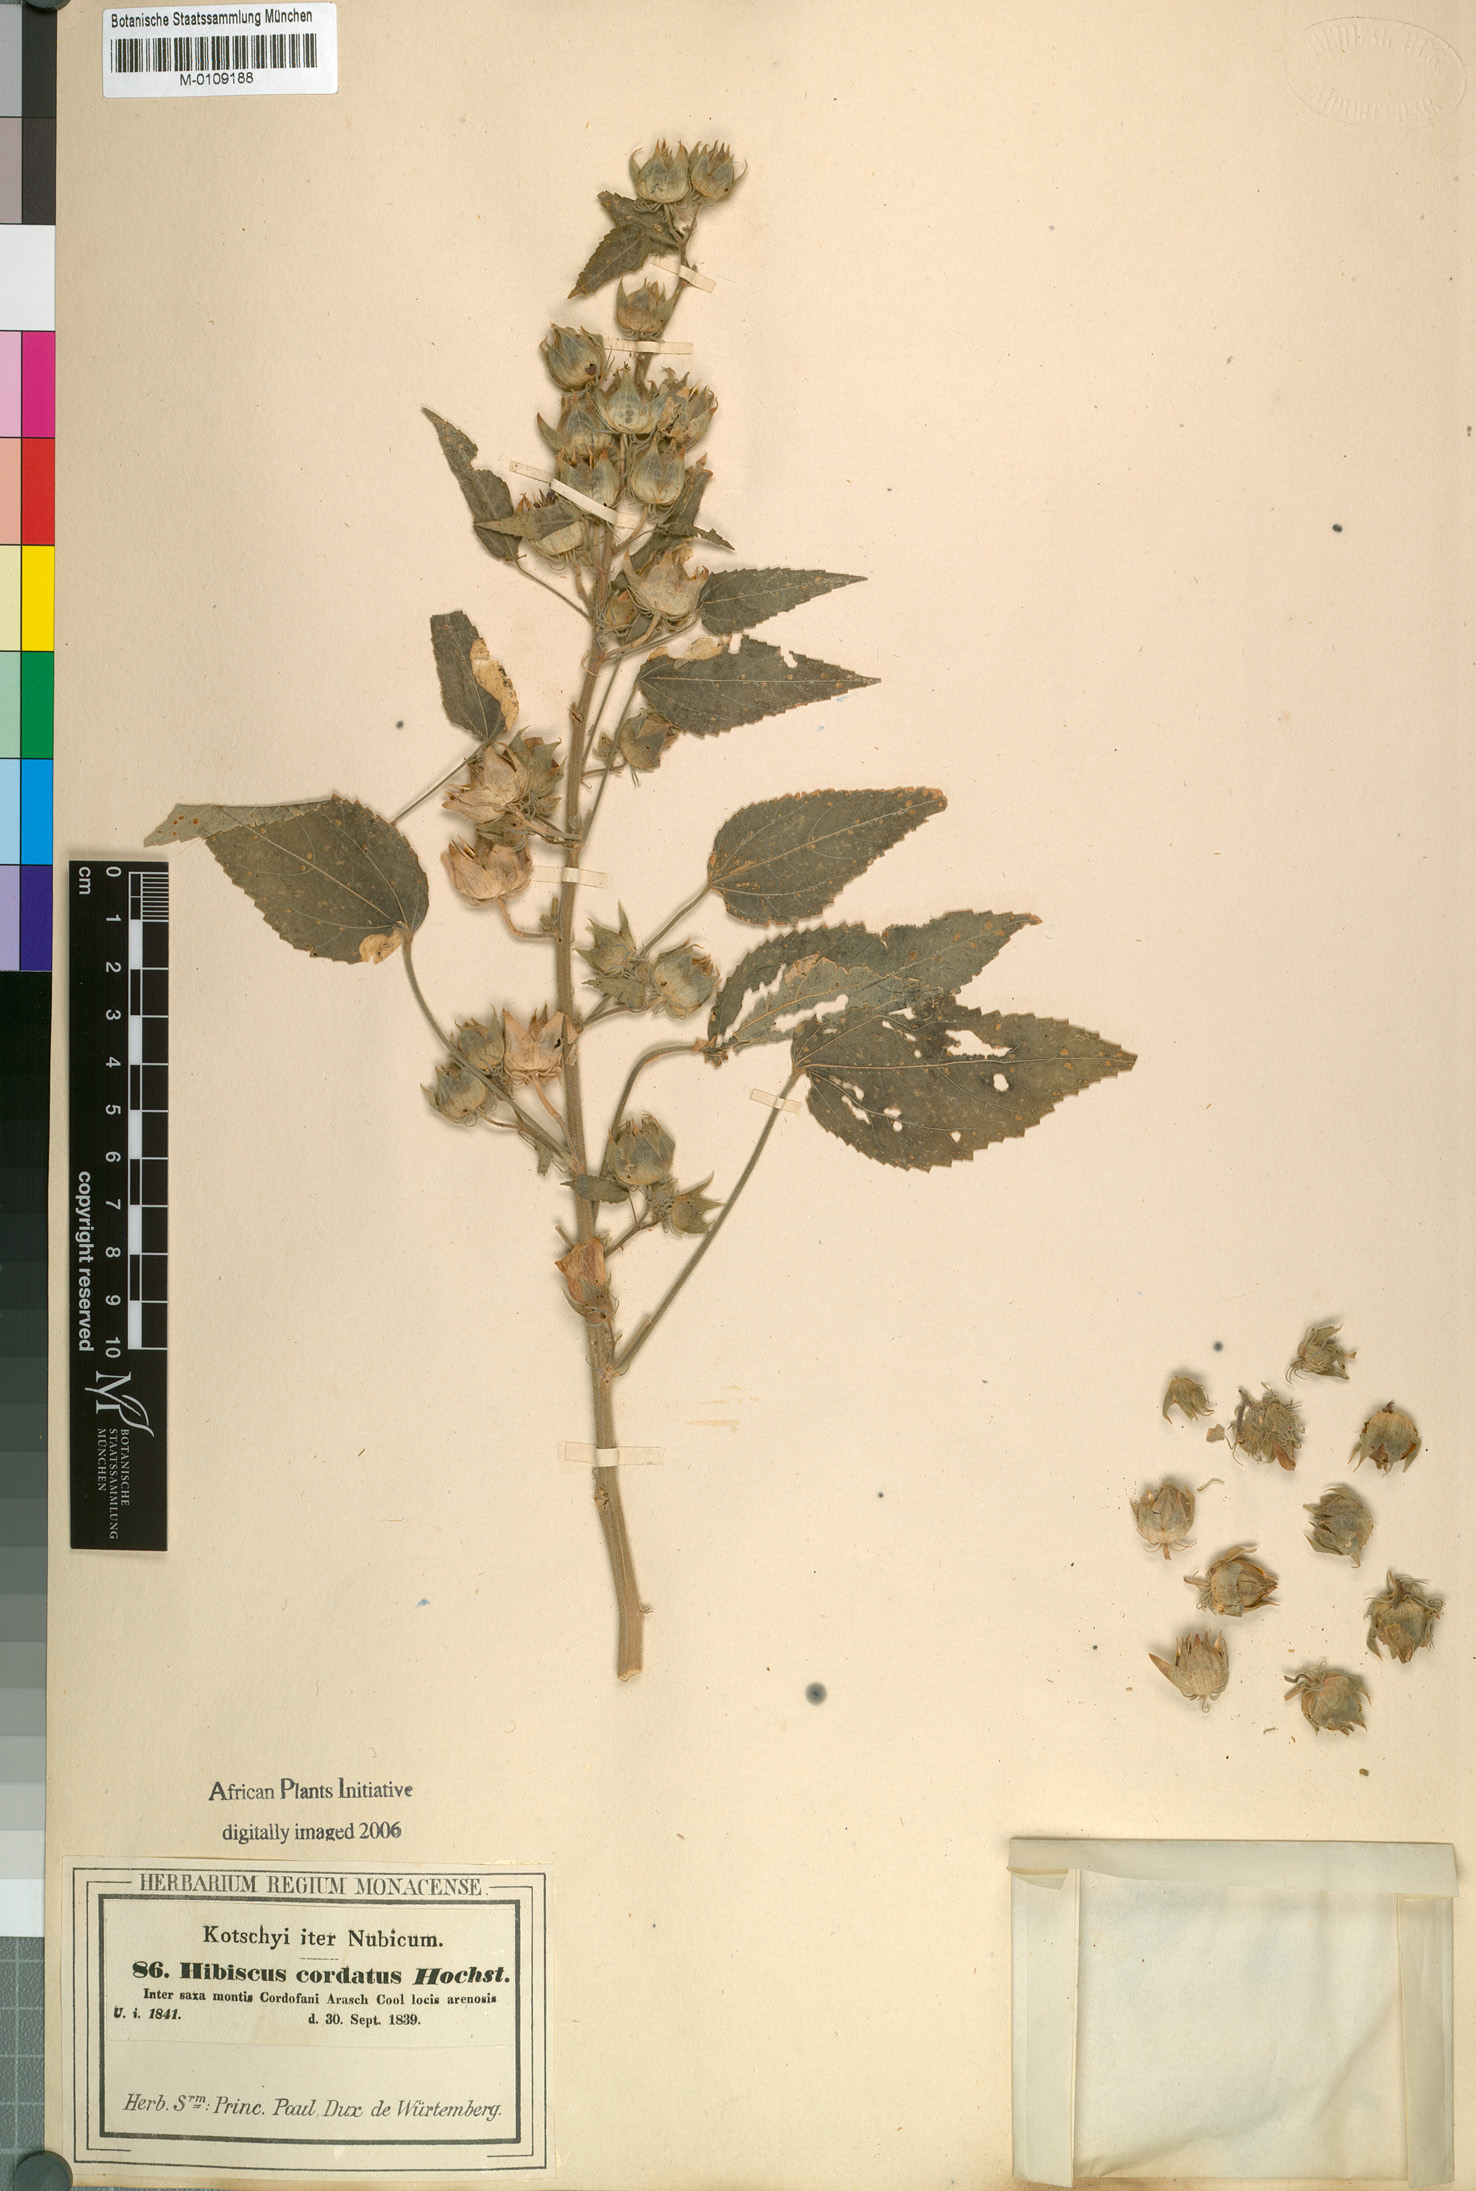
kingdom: Plantae
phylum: Tracheophyta
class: Magnoliopsida
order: Malvales
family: Malvaceae
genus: Hibiscus
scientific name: Hibiscus rhabdotospermus
